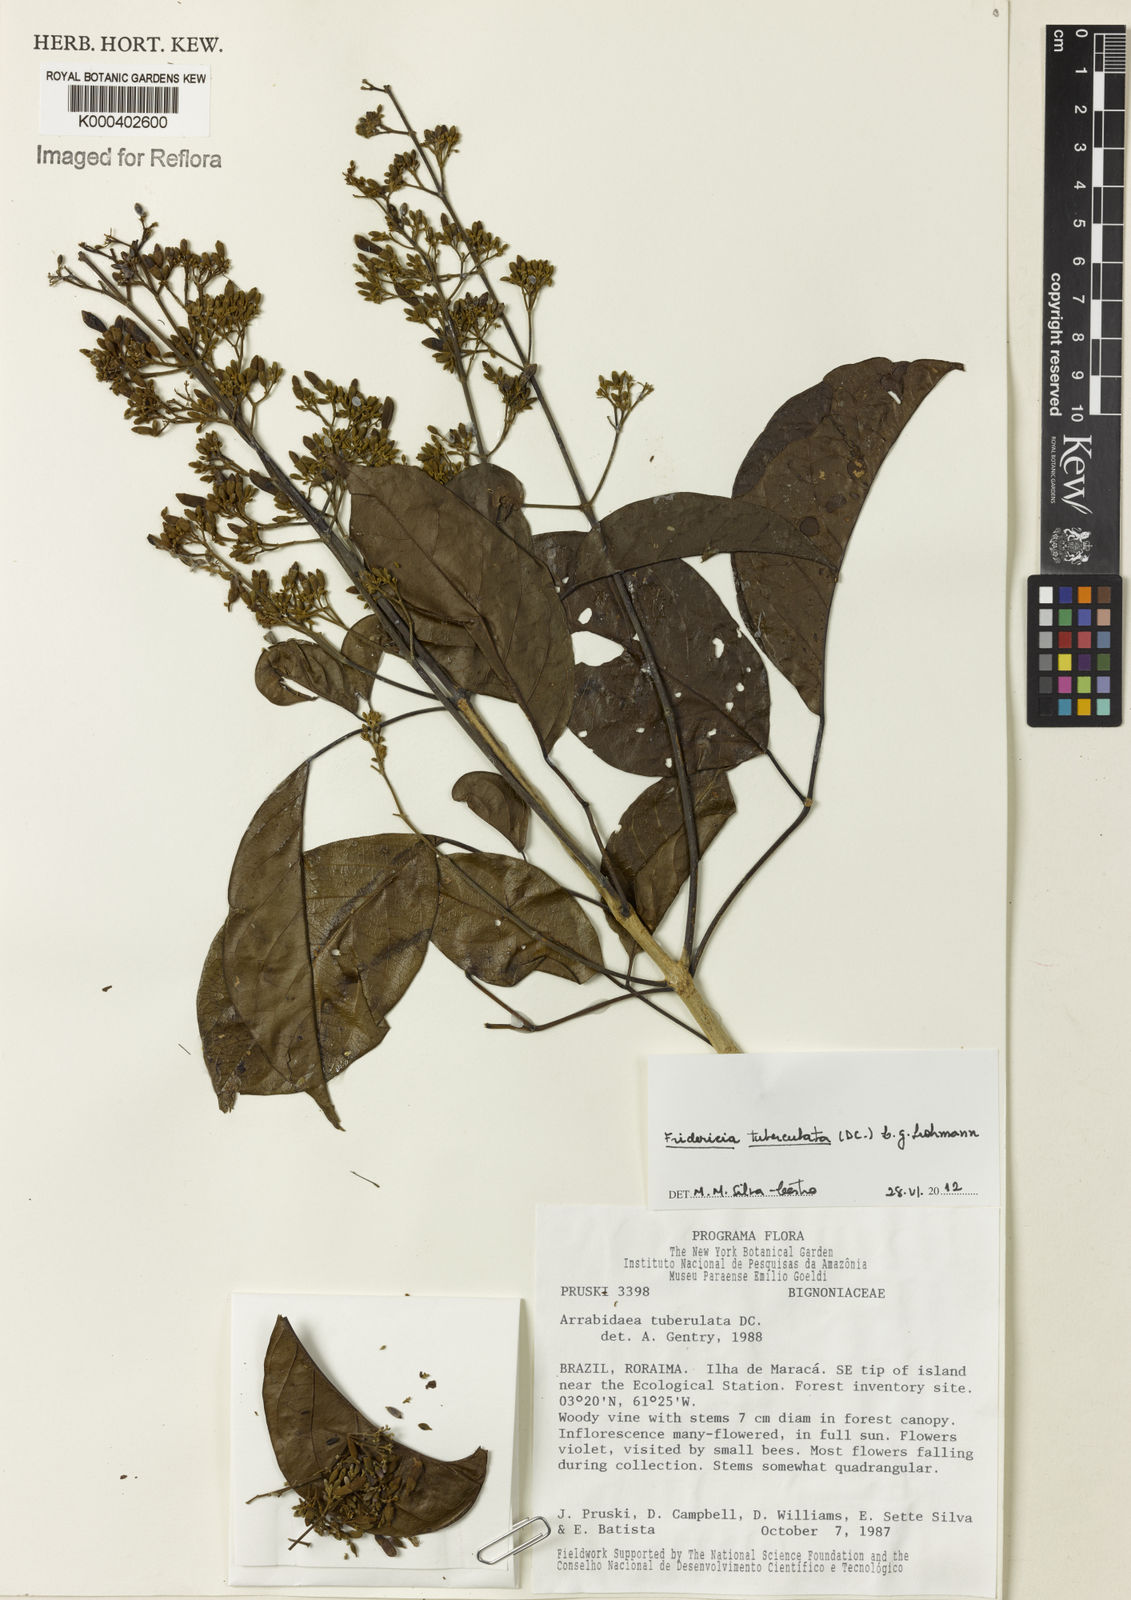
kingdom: Plantae
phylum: Tracheophyta
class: Magnoliopsida
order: Lamiales
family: Bignoniaceae
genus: Fridericia
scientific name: Fridericia tuberculata
